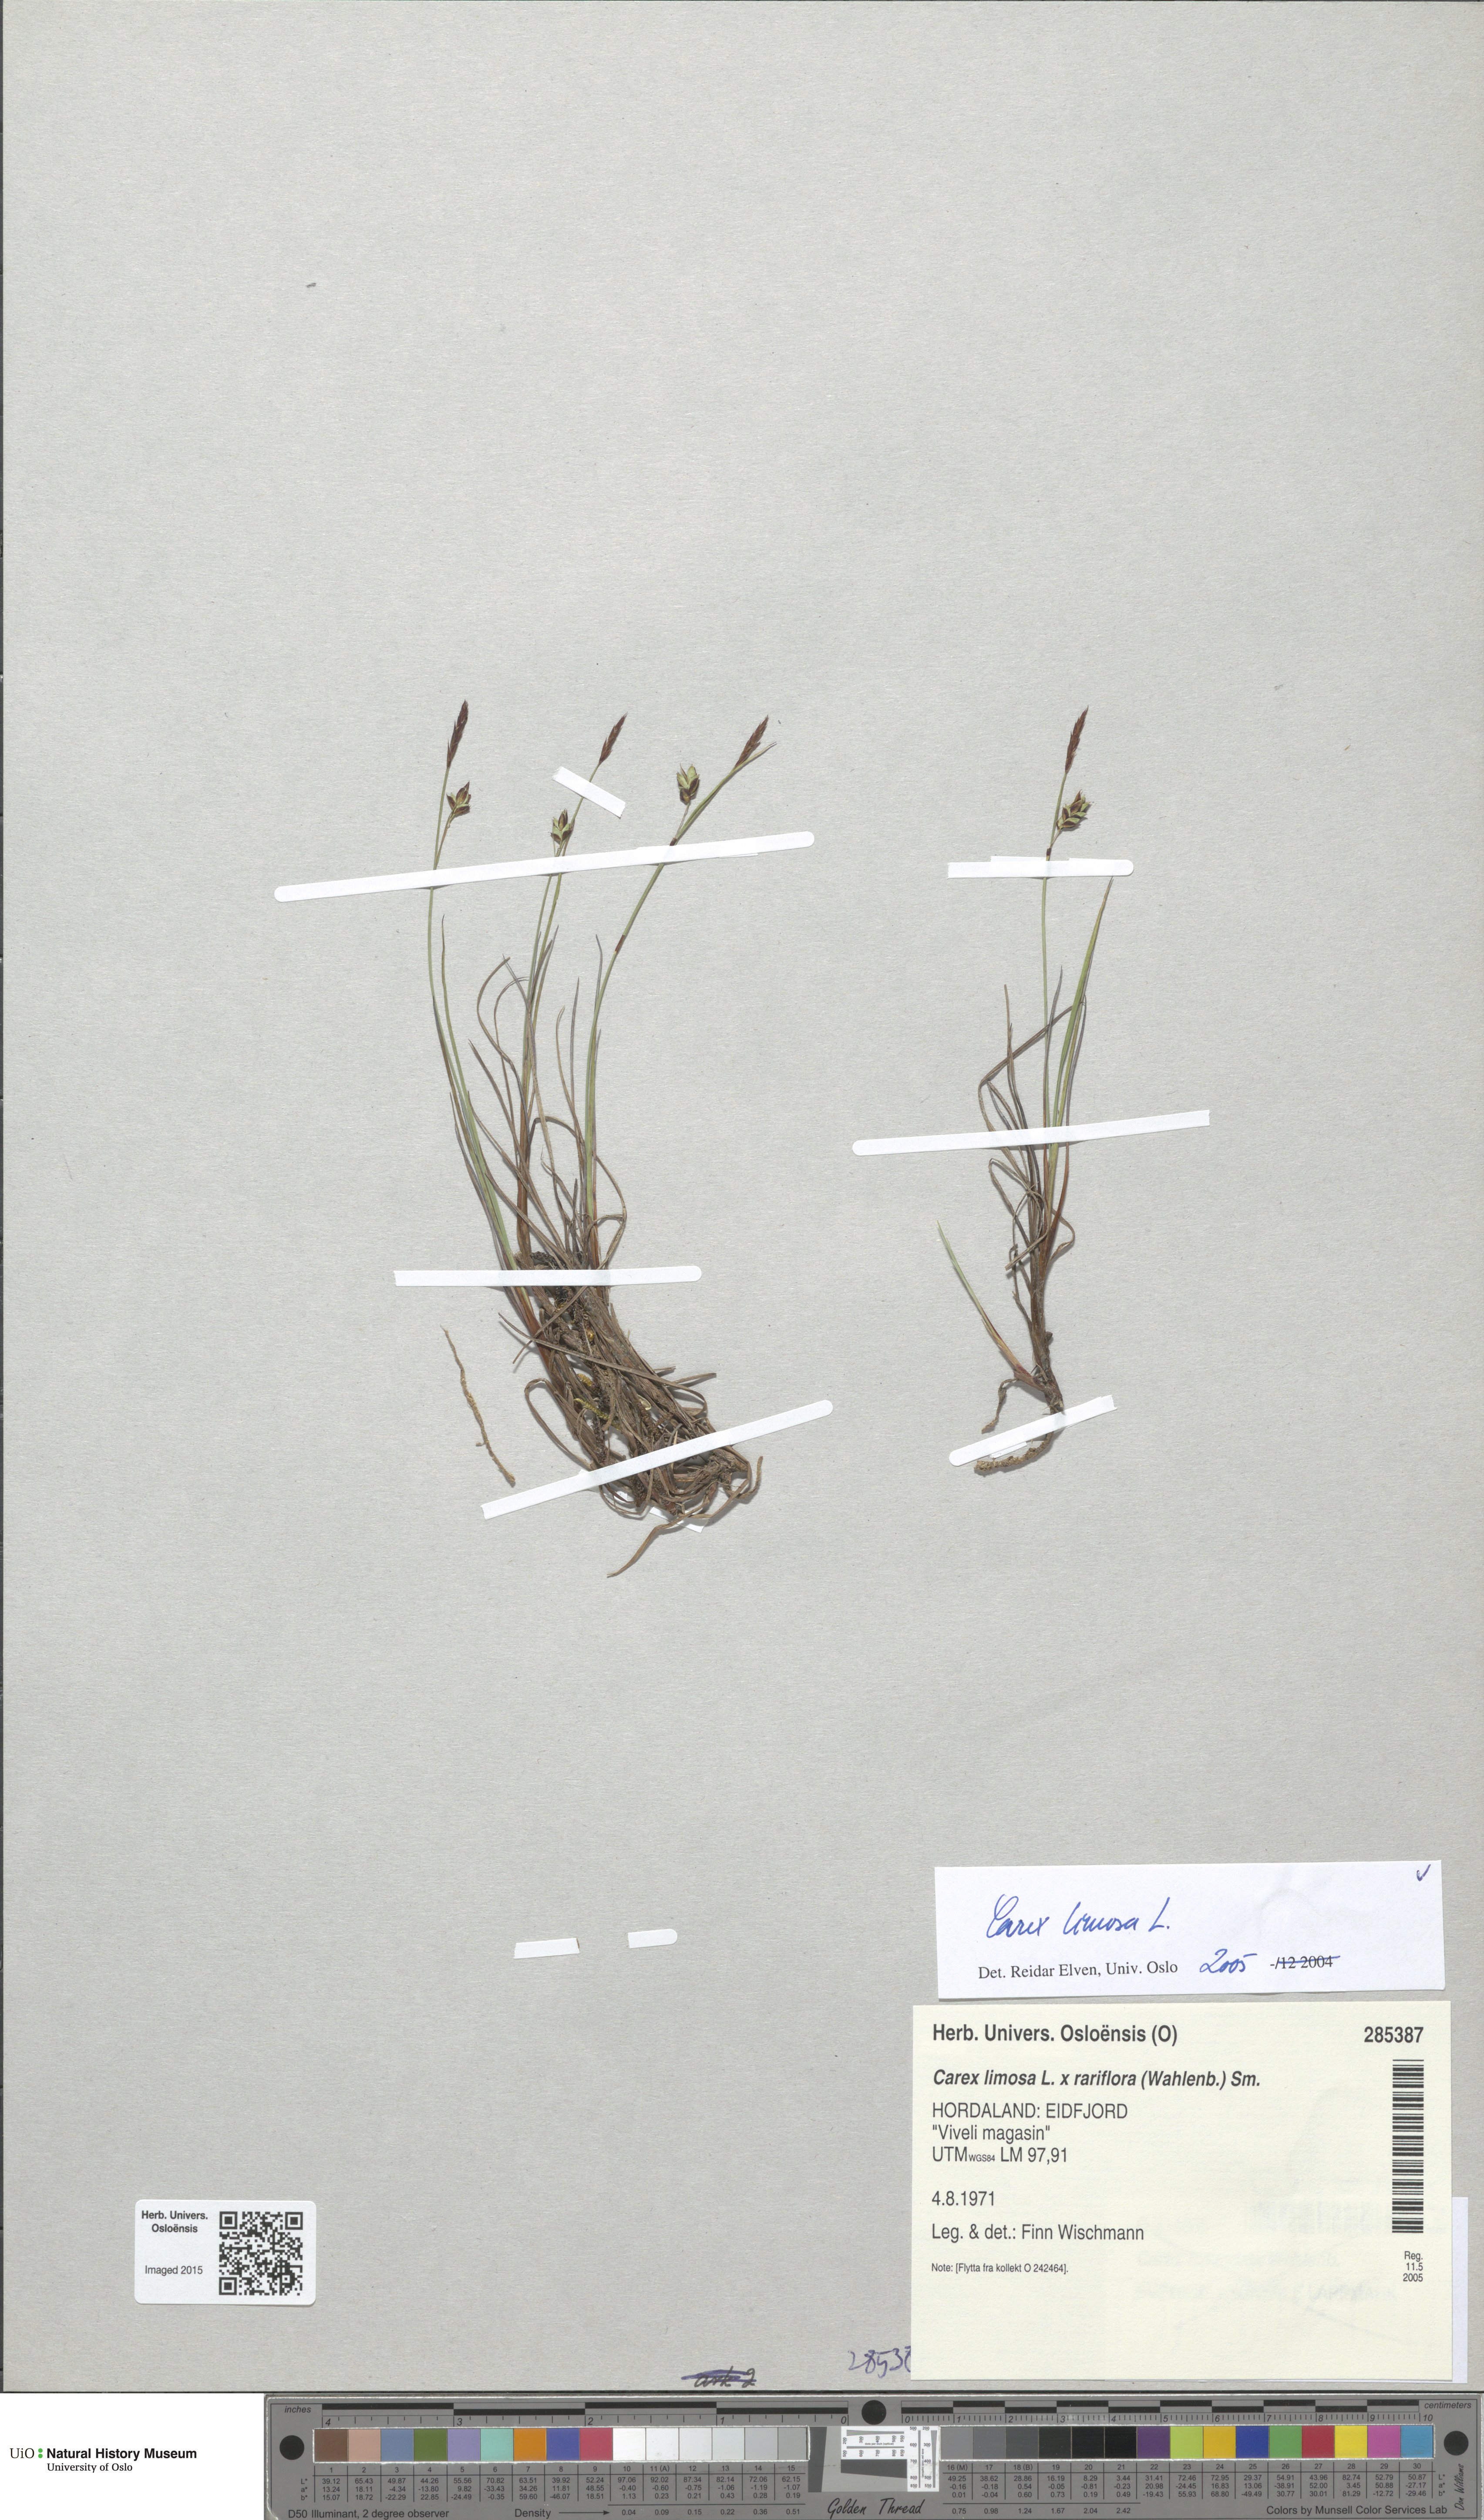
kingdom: Plantae
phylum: Tracheophyta
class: Liliopsida
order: Poales
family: Cyperaceae
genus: Carex
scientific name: Carex limosa
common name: Bog sedge
